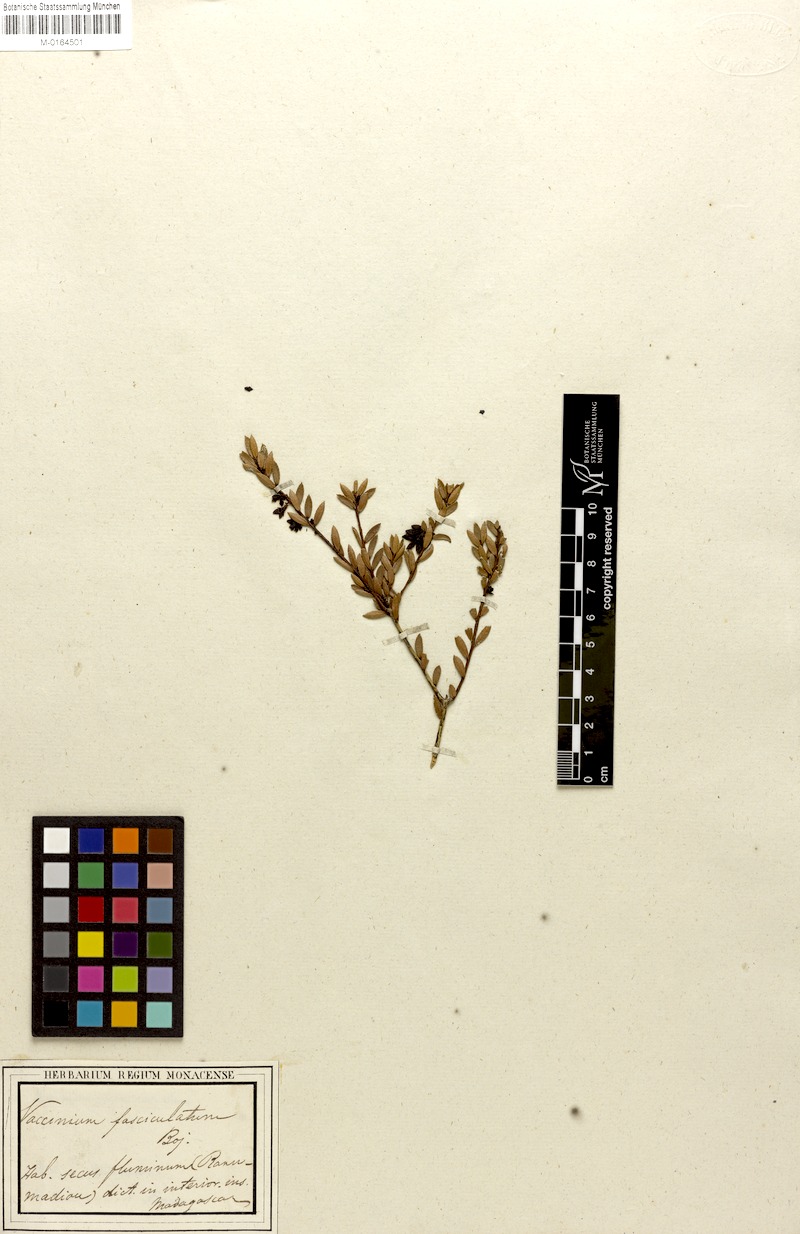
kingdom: Plantae
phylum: Tracheophyta
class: Magnoliopsida
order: Ericales
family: Ericaceae
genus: Vaccinium
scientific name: Vaccinium madagascariense
